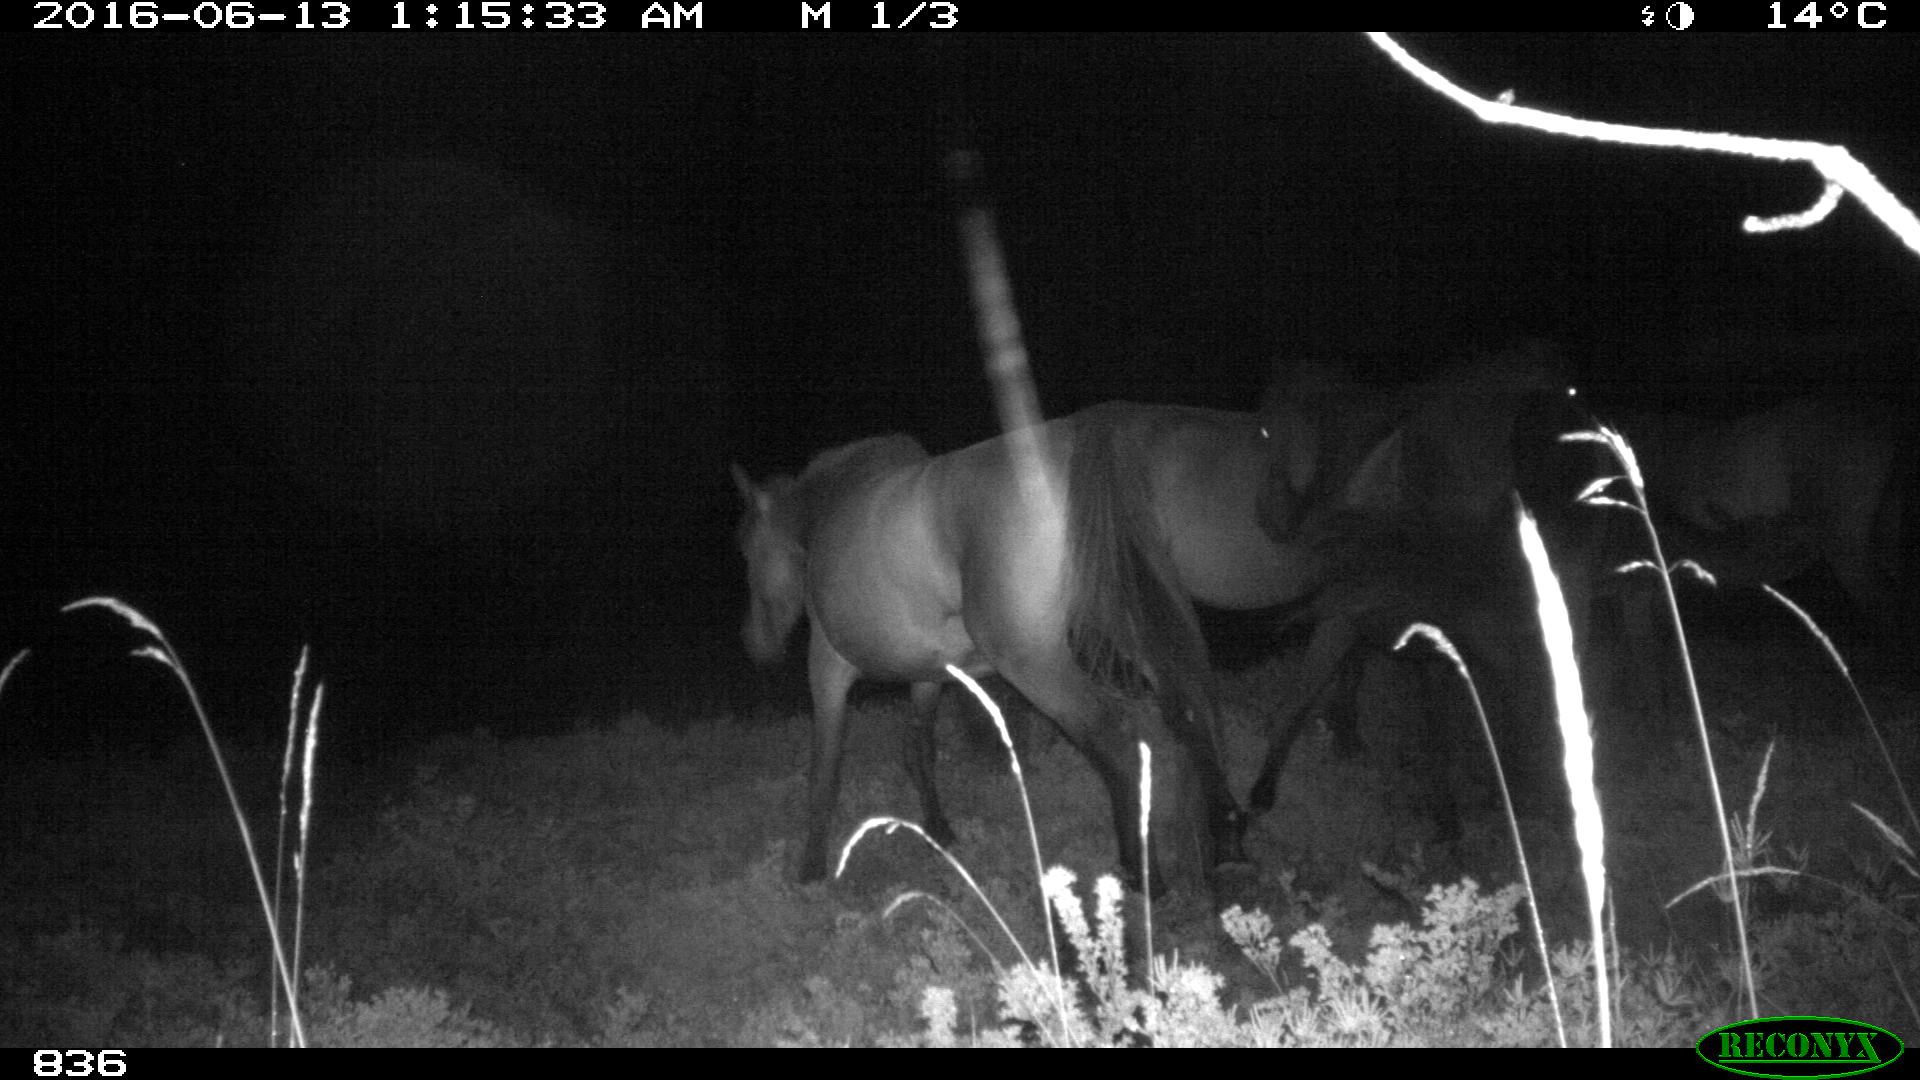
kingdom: Animalia
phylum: Chordata
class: Mammalia
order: Perissodactyla
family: Equidae
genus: Equus
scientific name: Equus caballus
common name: Horse
